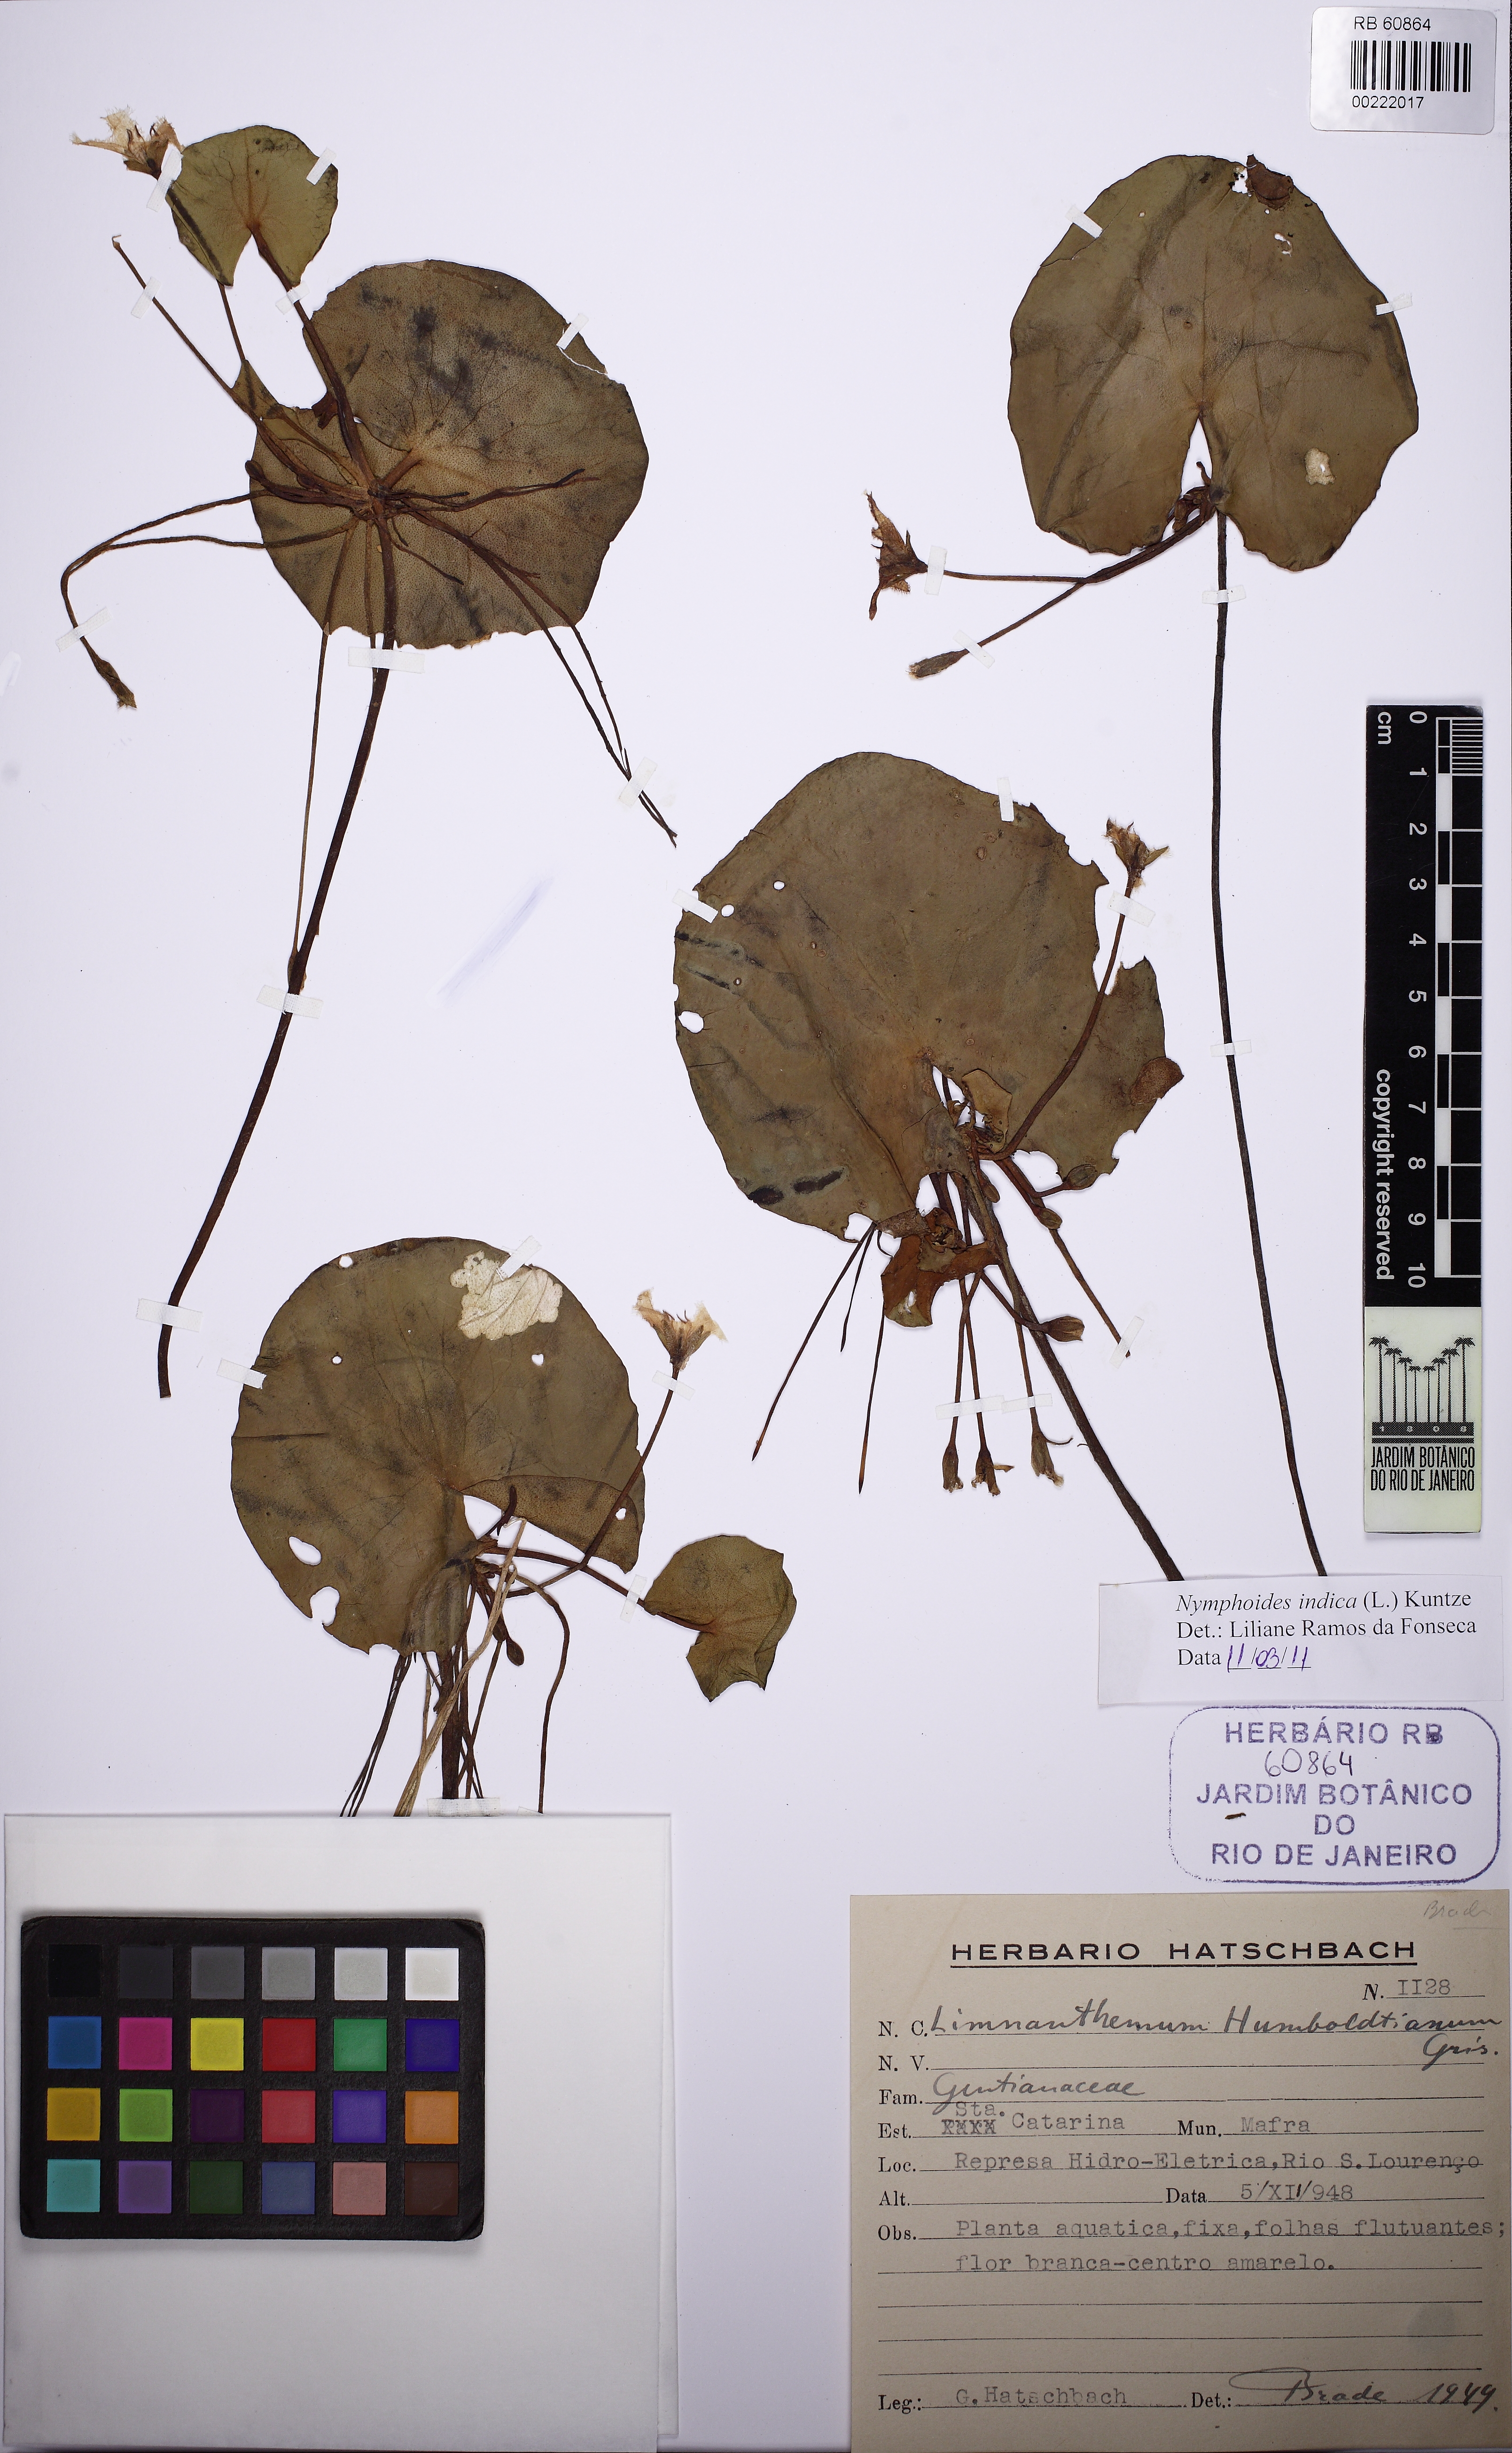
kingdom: Plantae
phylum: Tracheophyta
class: Magnoliopsida
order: Asterales
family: Menyanthaceae
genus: Nymphoides
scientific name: Nymphoides indica
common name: Water-snowflake
